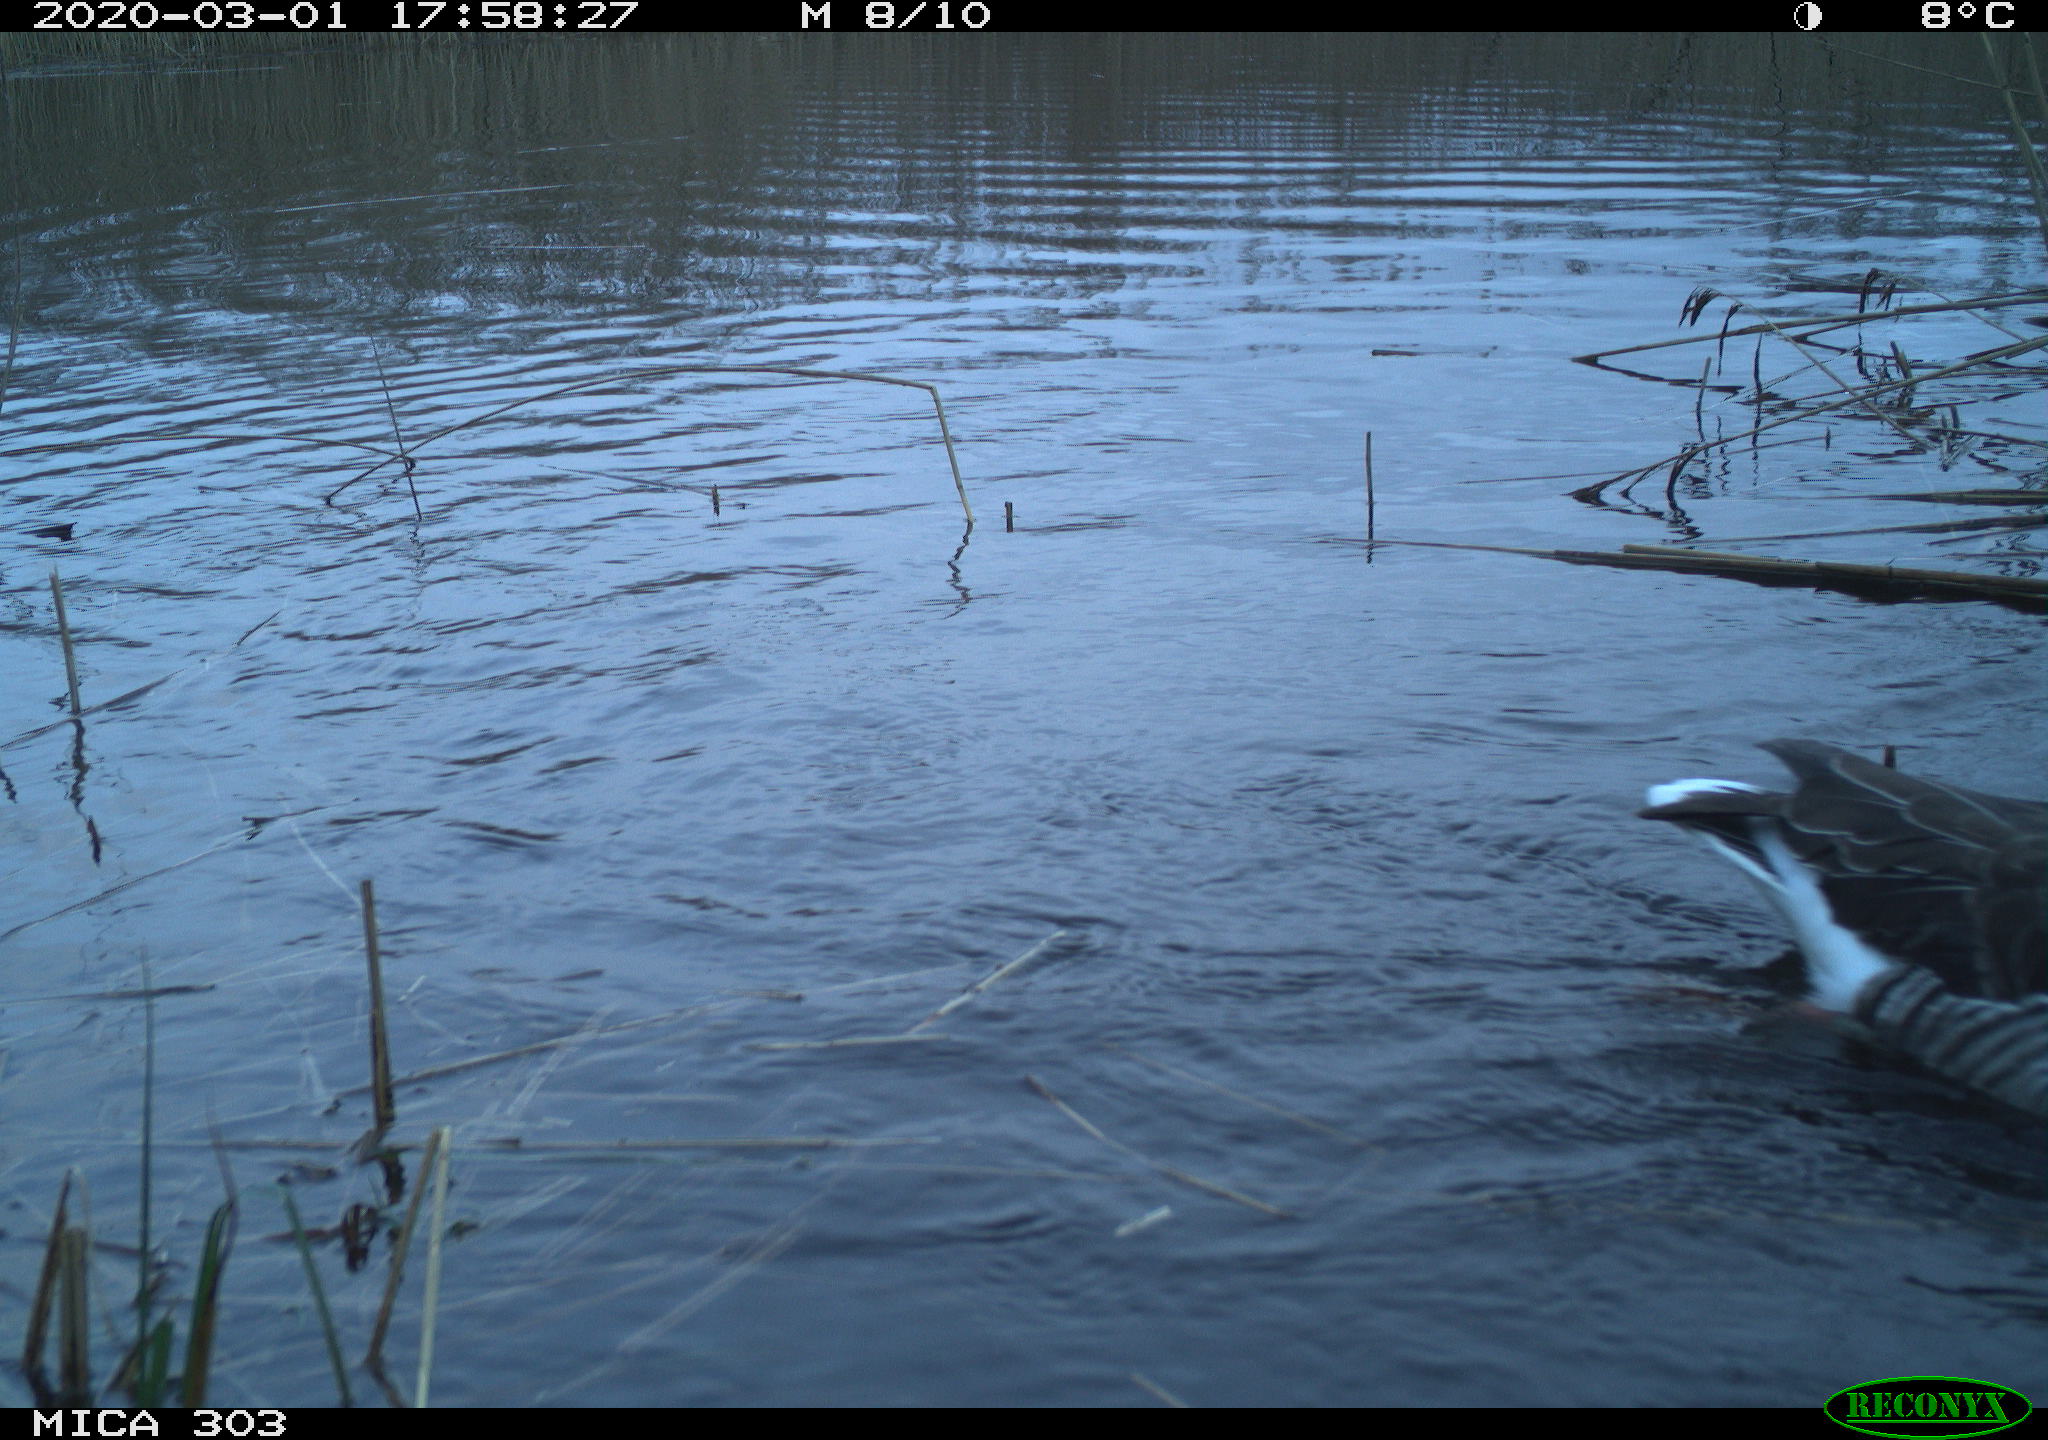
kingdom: Animalia
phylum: Chordata
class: Aves
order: Anseriformes
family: Anatidae
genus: Anser
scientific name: Anser anser
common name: Greylag goose
